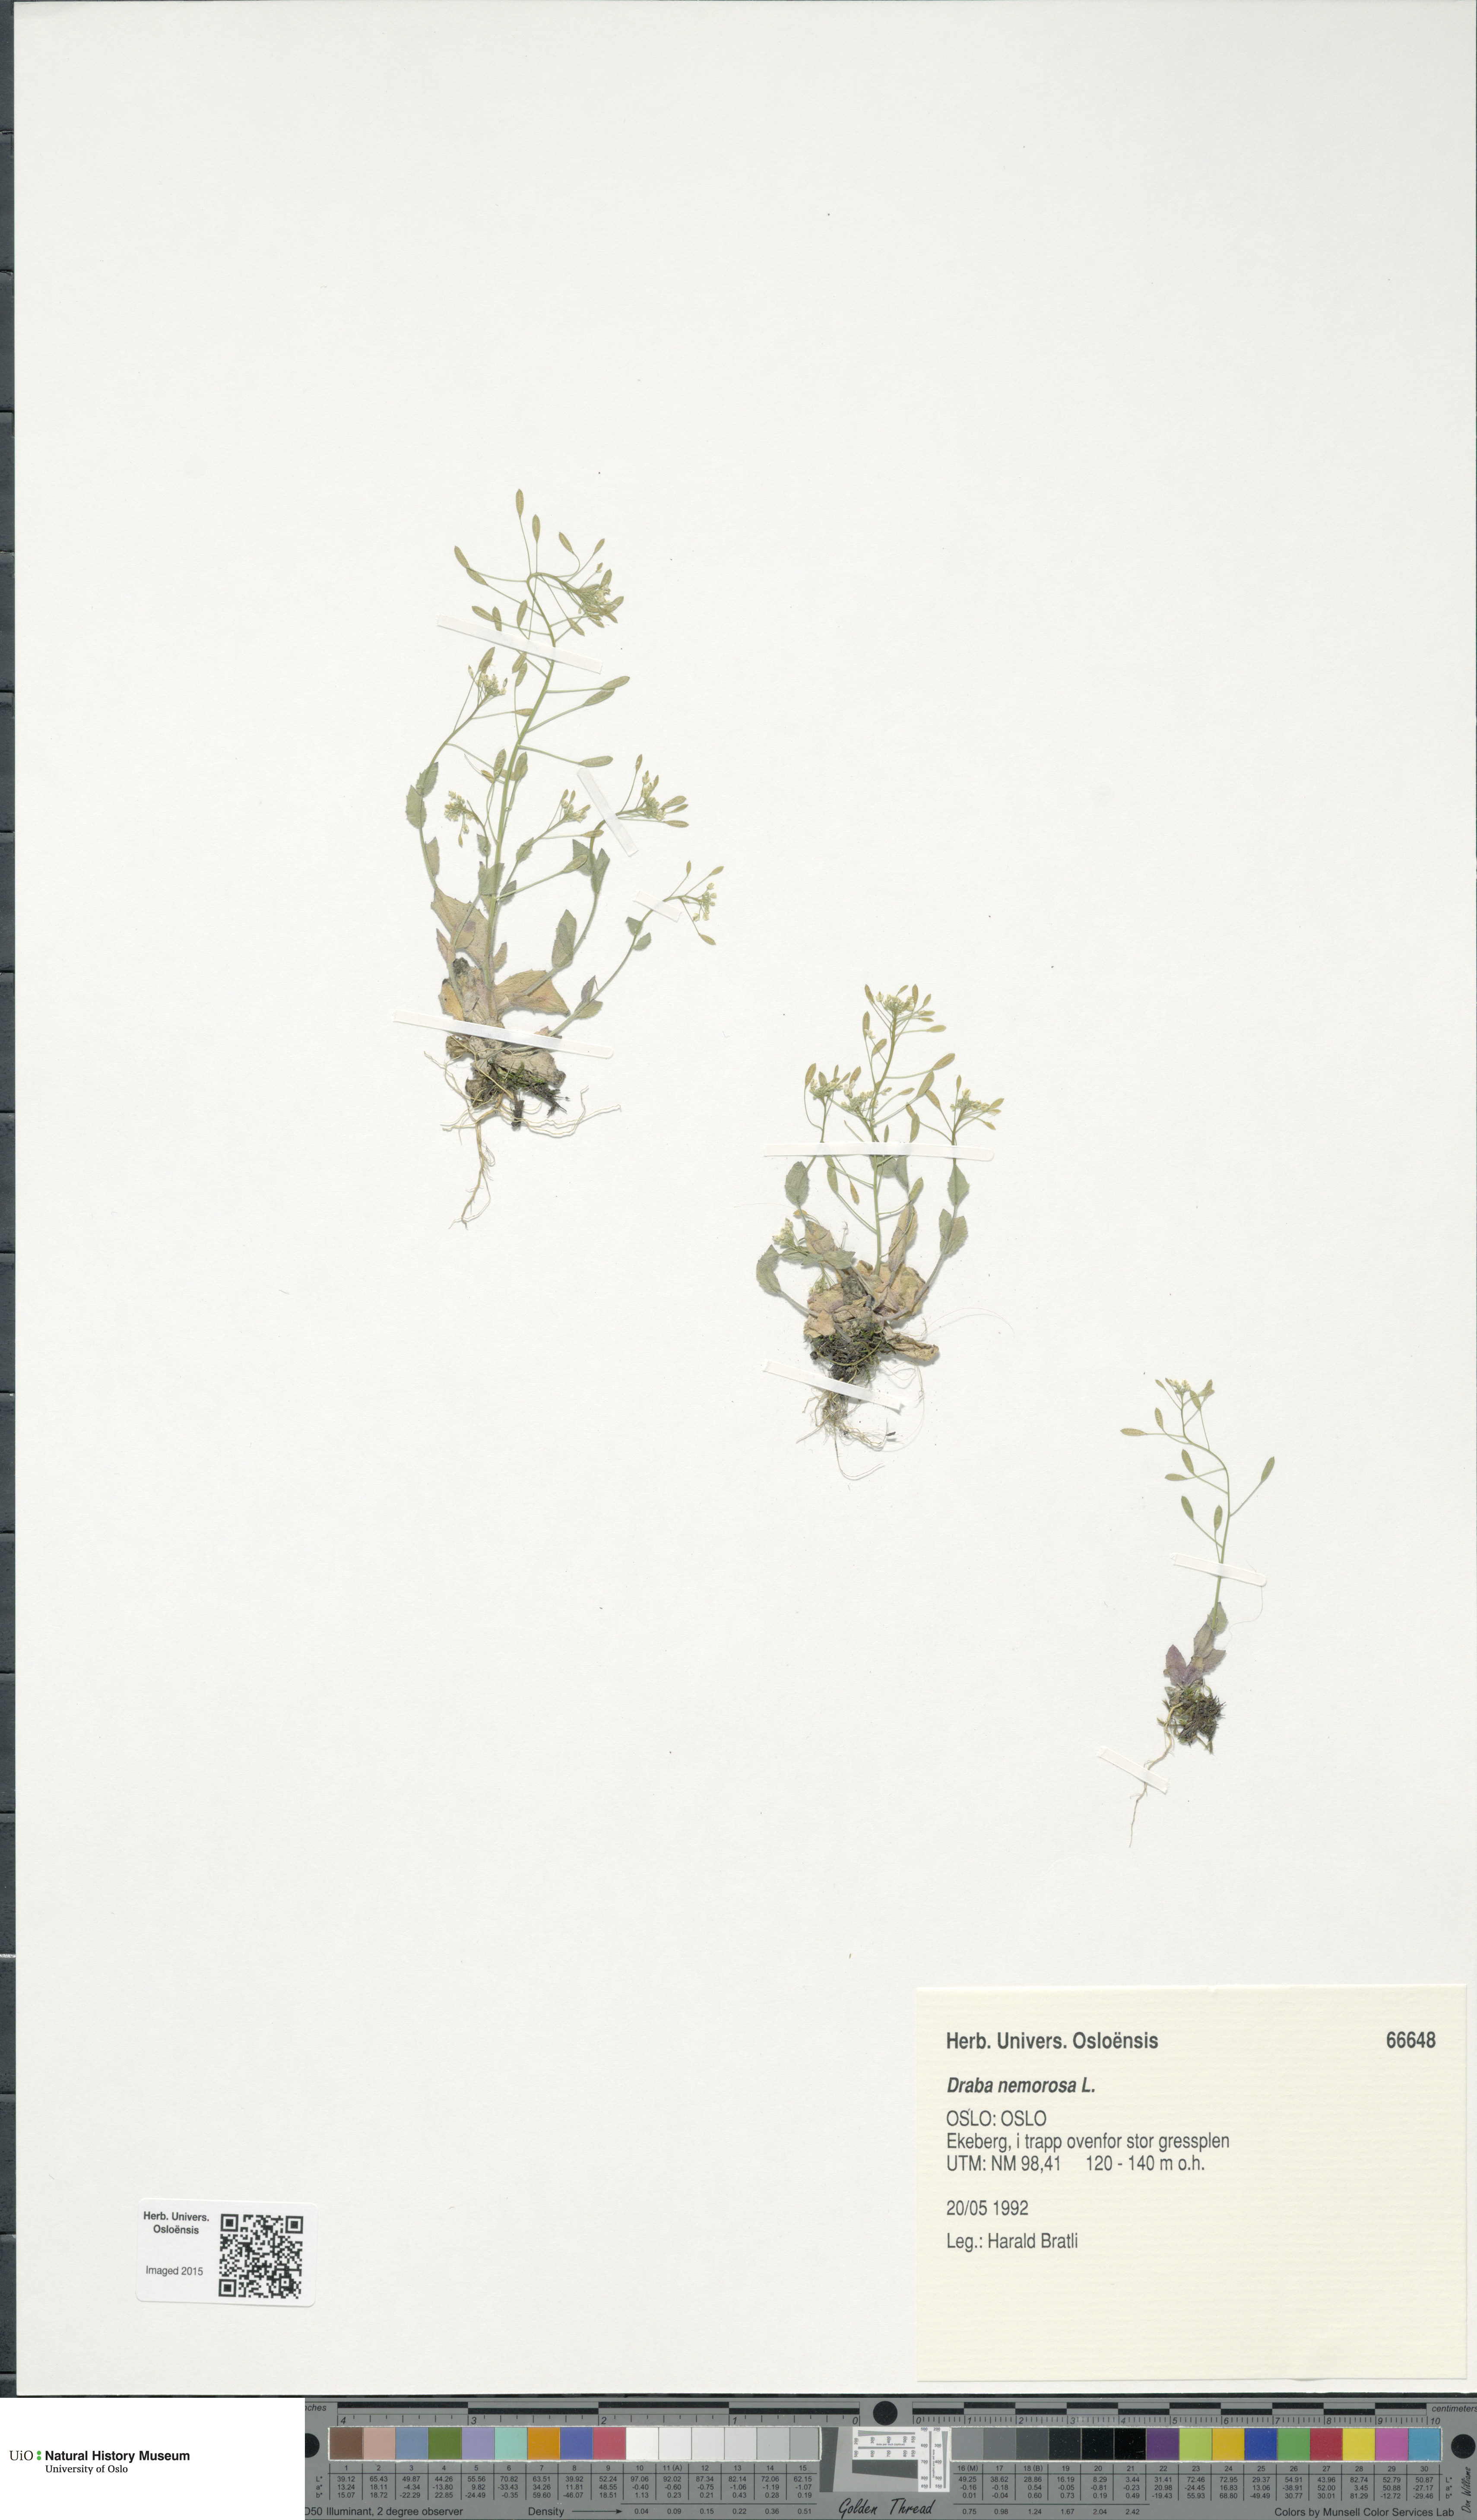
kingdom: Plantae
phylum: Tracheophyta
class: Magnoliopsida
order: Brassicales
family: Brassicaceae
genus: Draba
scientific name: Draba nemorosa
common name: Wood whitlow-grass
